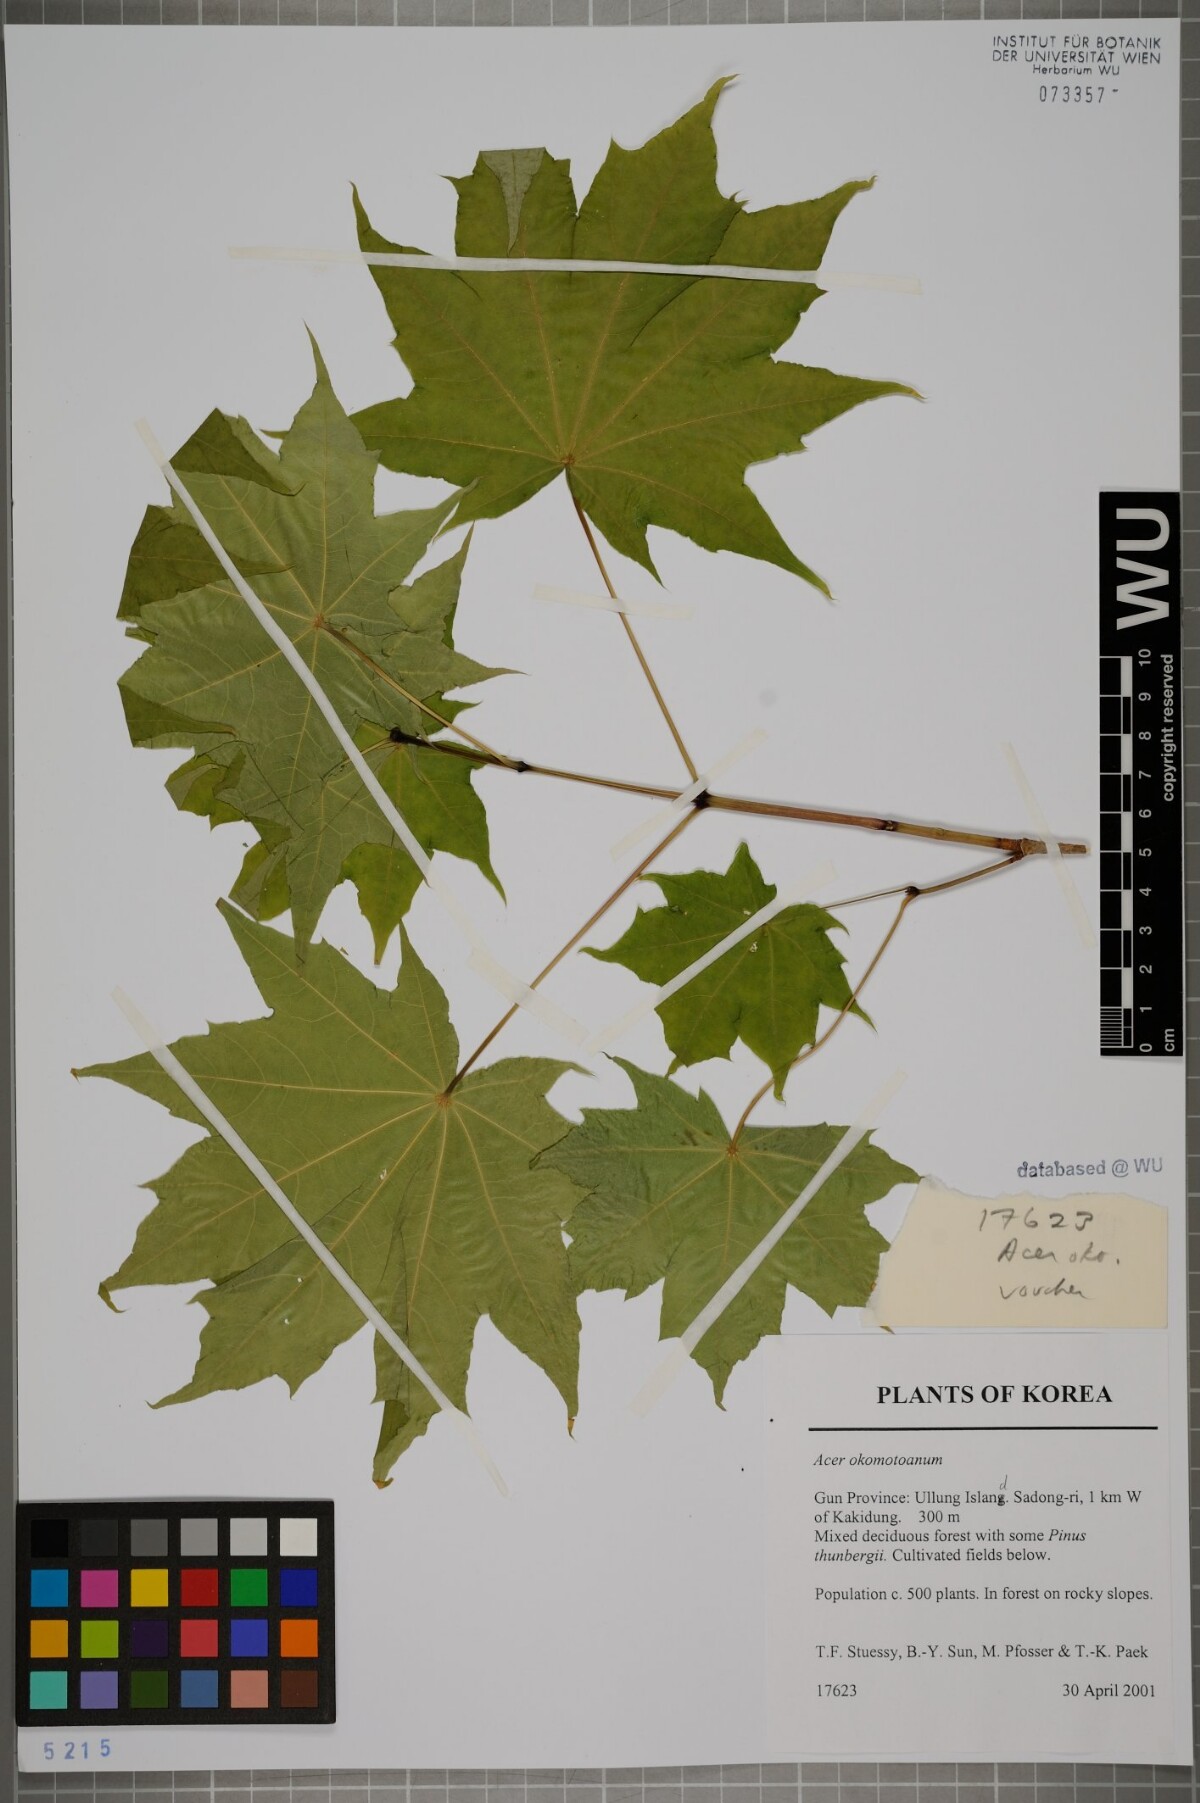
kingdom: Plantae
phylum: Tracheophyta
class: Magnoliopsida
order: Sapindales
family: Sapindaceae
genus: Acer
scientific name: Acer pictum
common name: The painted maple
